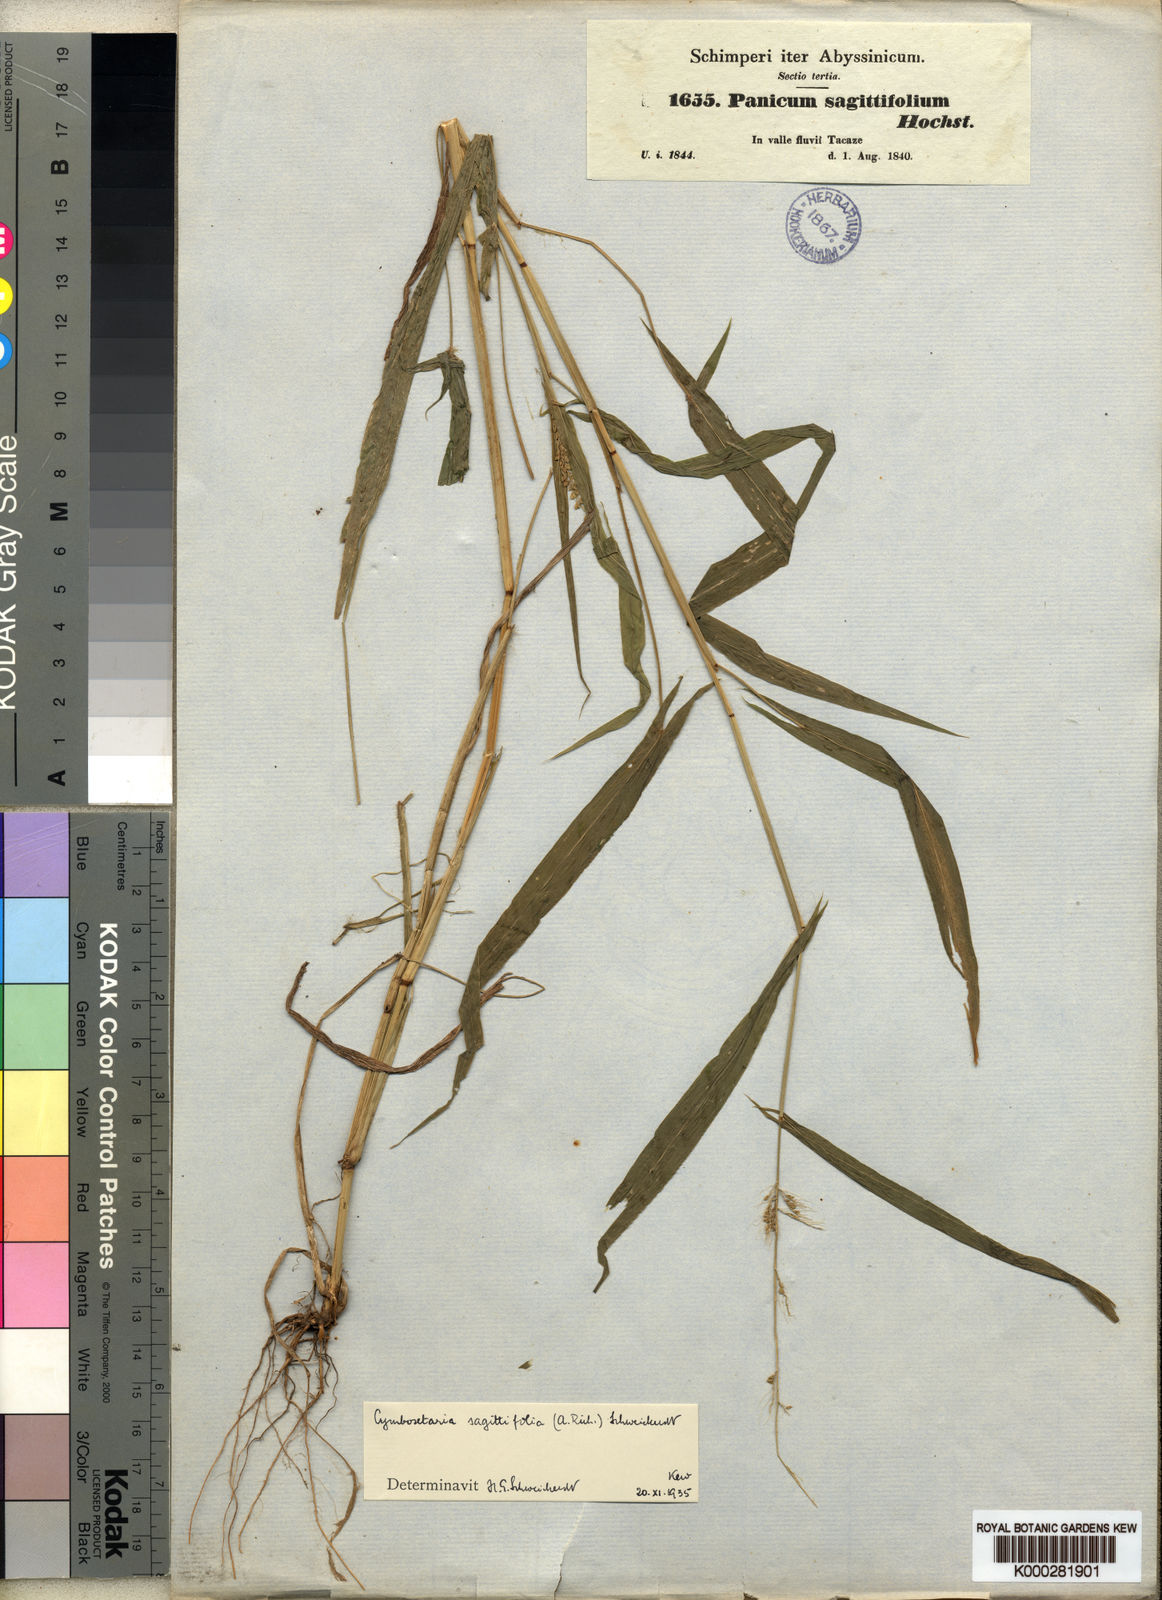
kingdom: Plantae
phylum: Tracheophyta
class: Liliopsida
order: Poales
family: Poaceae
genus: Setaria
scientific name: Setaria sagittifolia
